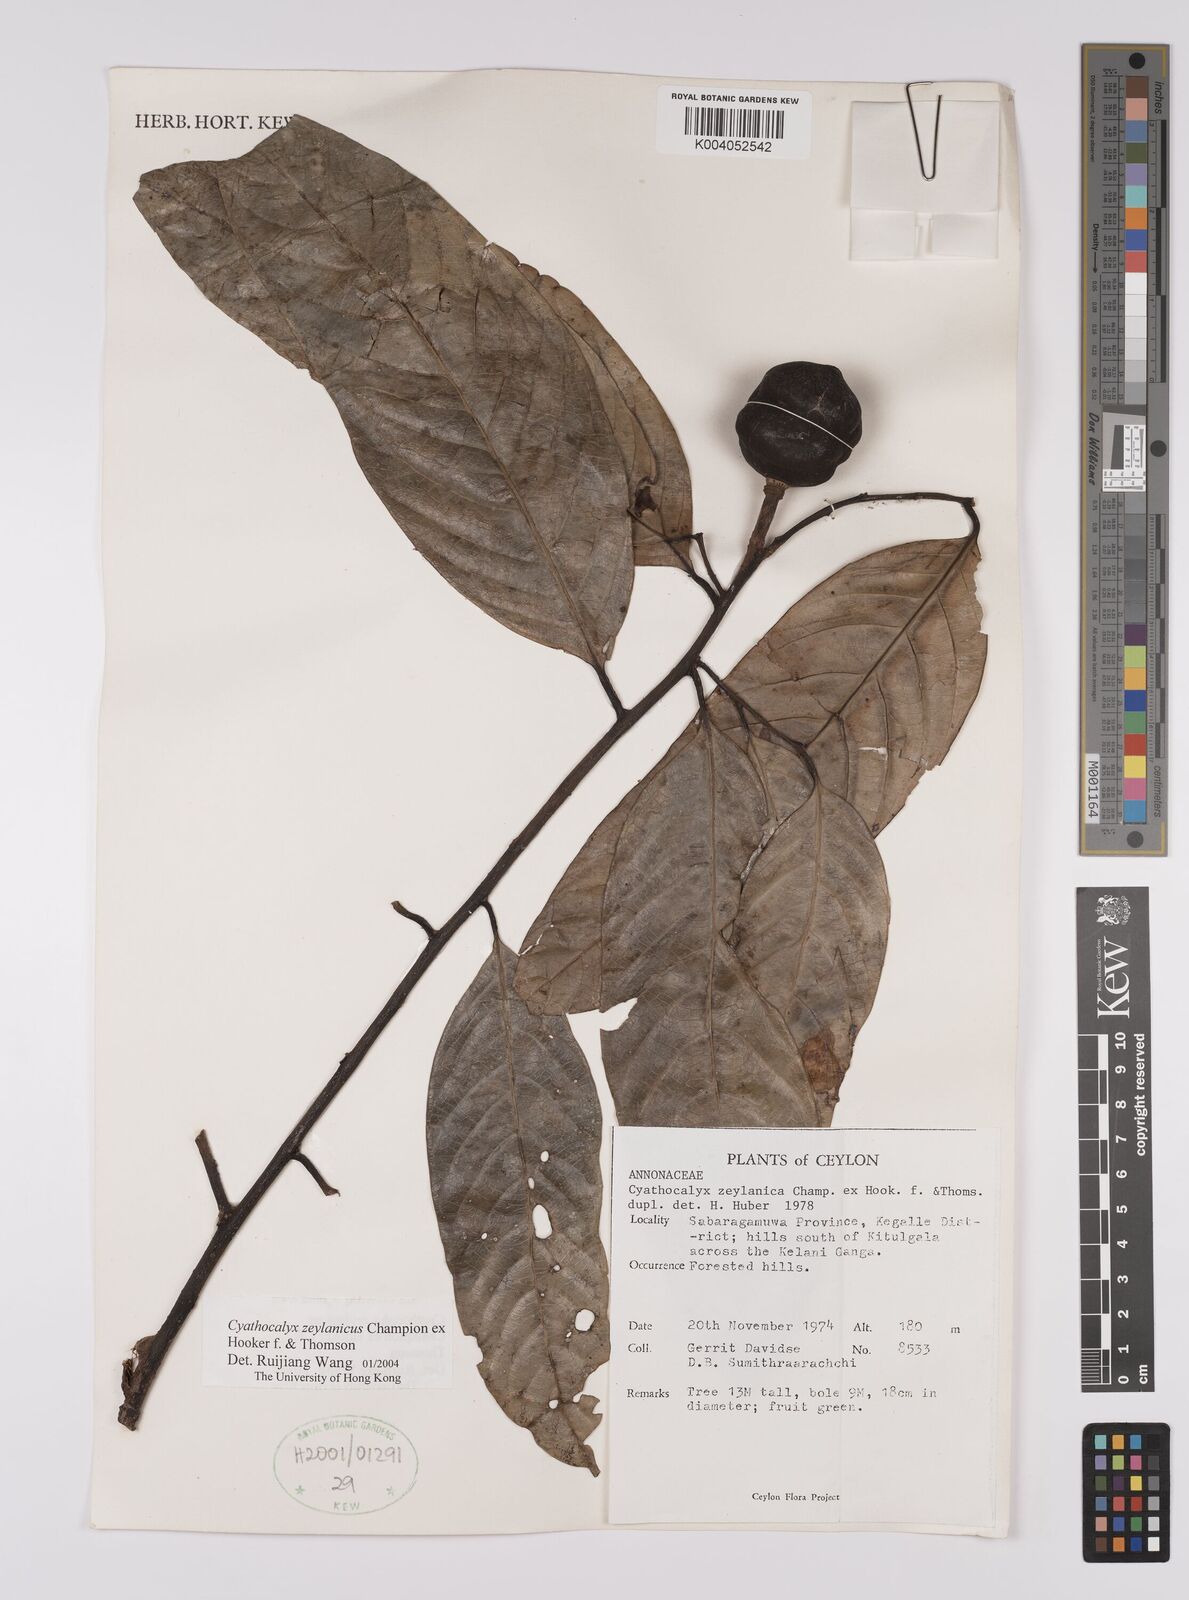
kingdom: Plantae
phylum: Tracheophyta
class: Magnoliopsida
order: Magnoliales
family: Annonaceae
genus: Cyathocalyx
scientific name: Cyathocalyx zeylanicus
